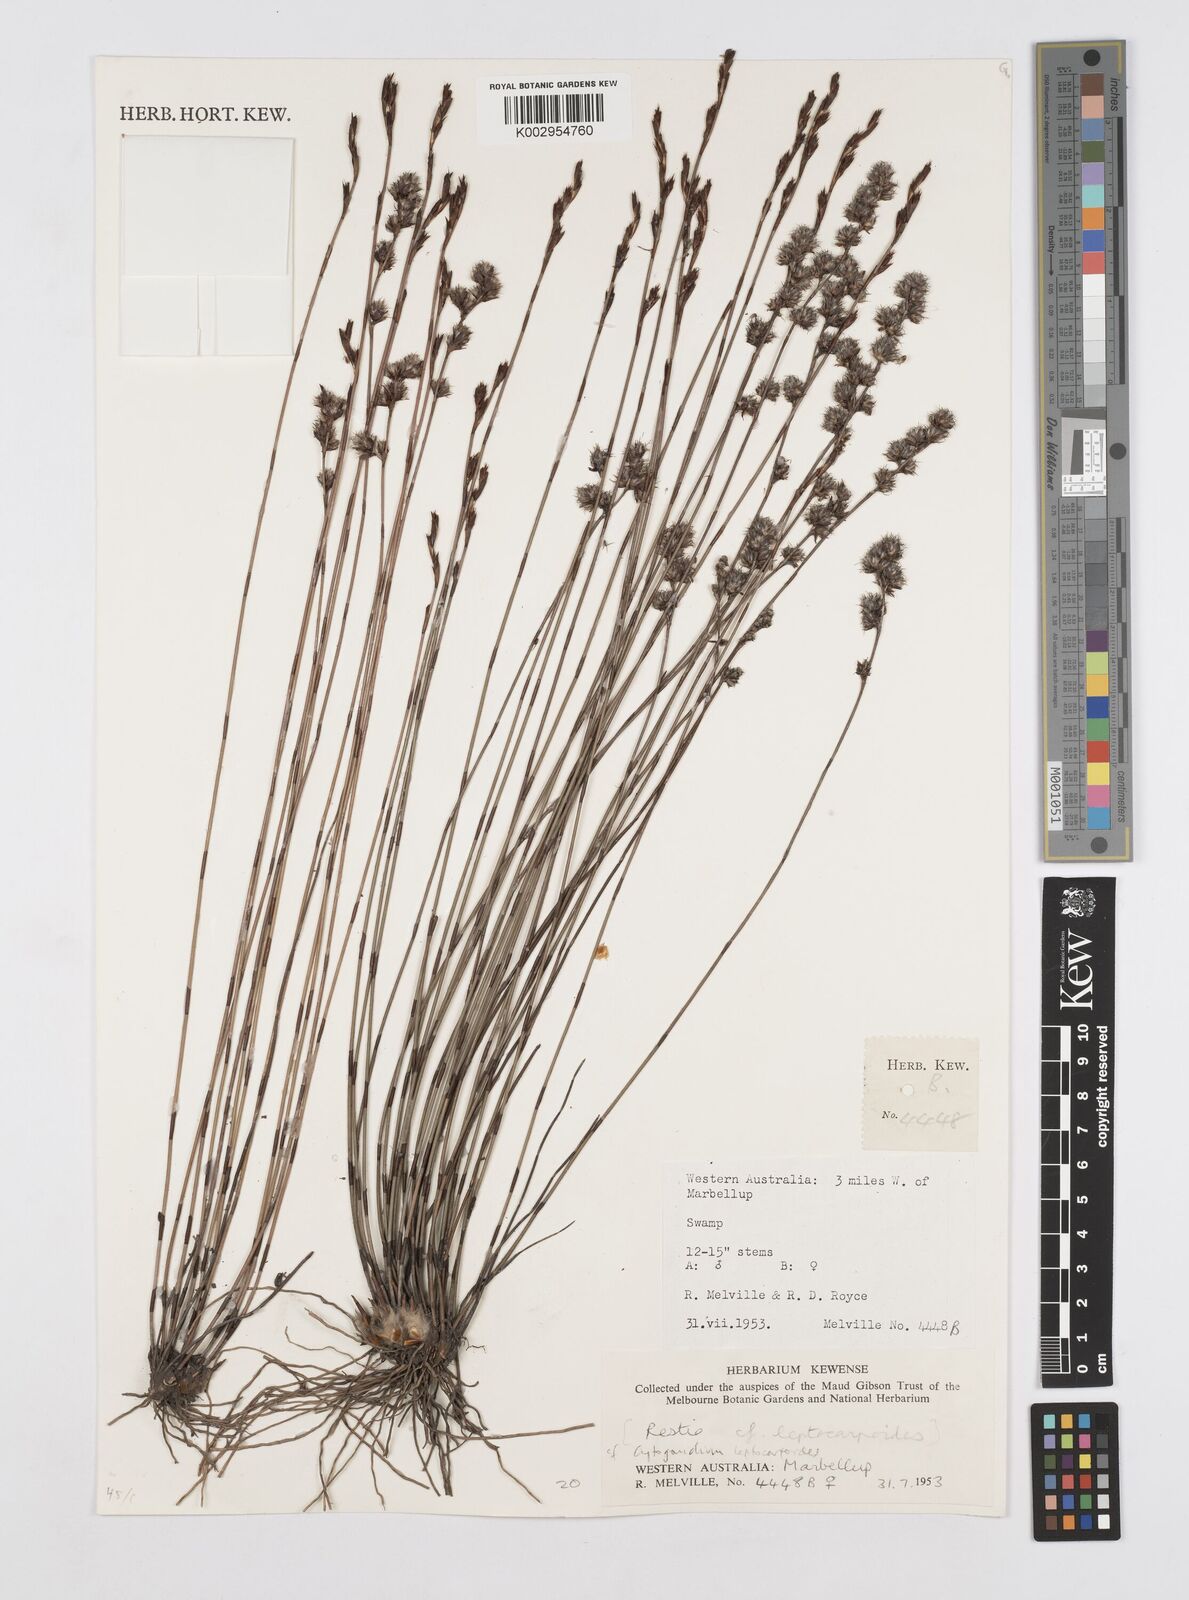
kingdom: Plantae
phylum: Tracheophyta
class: Liliopsida
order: Poales
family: Restionaceae
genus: Cytogonidium
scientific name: Cytogonidium leptocarpoides
